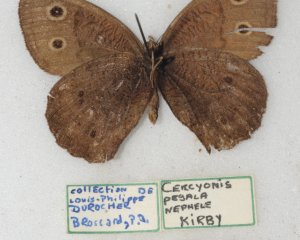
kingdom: Animalia
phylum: Arthropoda
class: Insecta
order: Lepidoptera
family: Nymphalidae
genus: Cercyonis
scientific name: Cercyonis pegala
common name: Common Wood-Nymph
